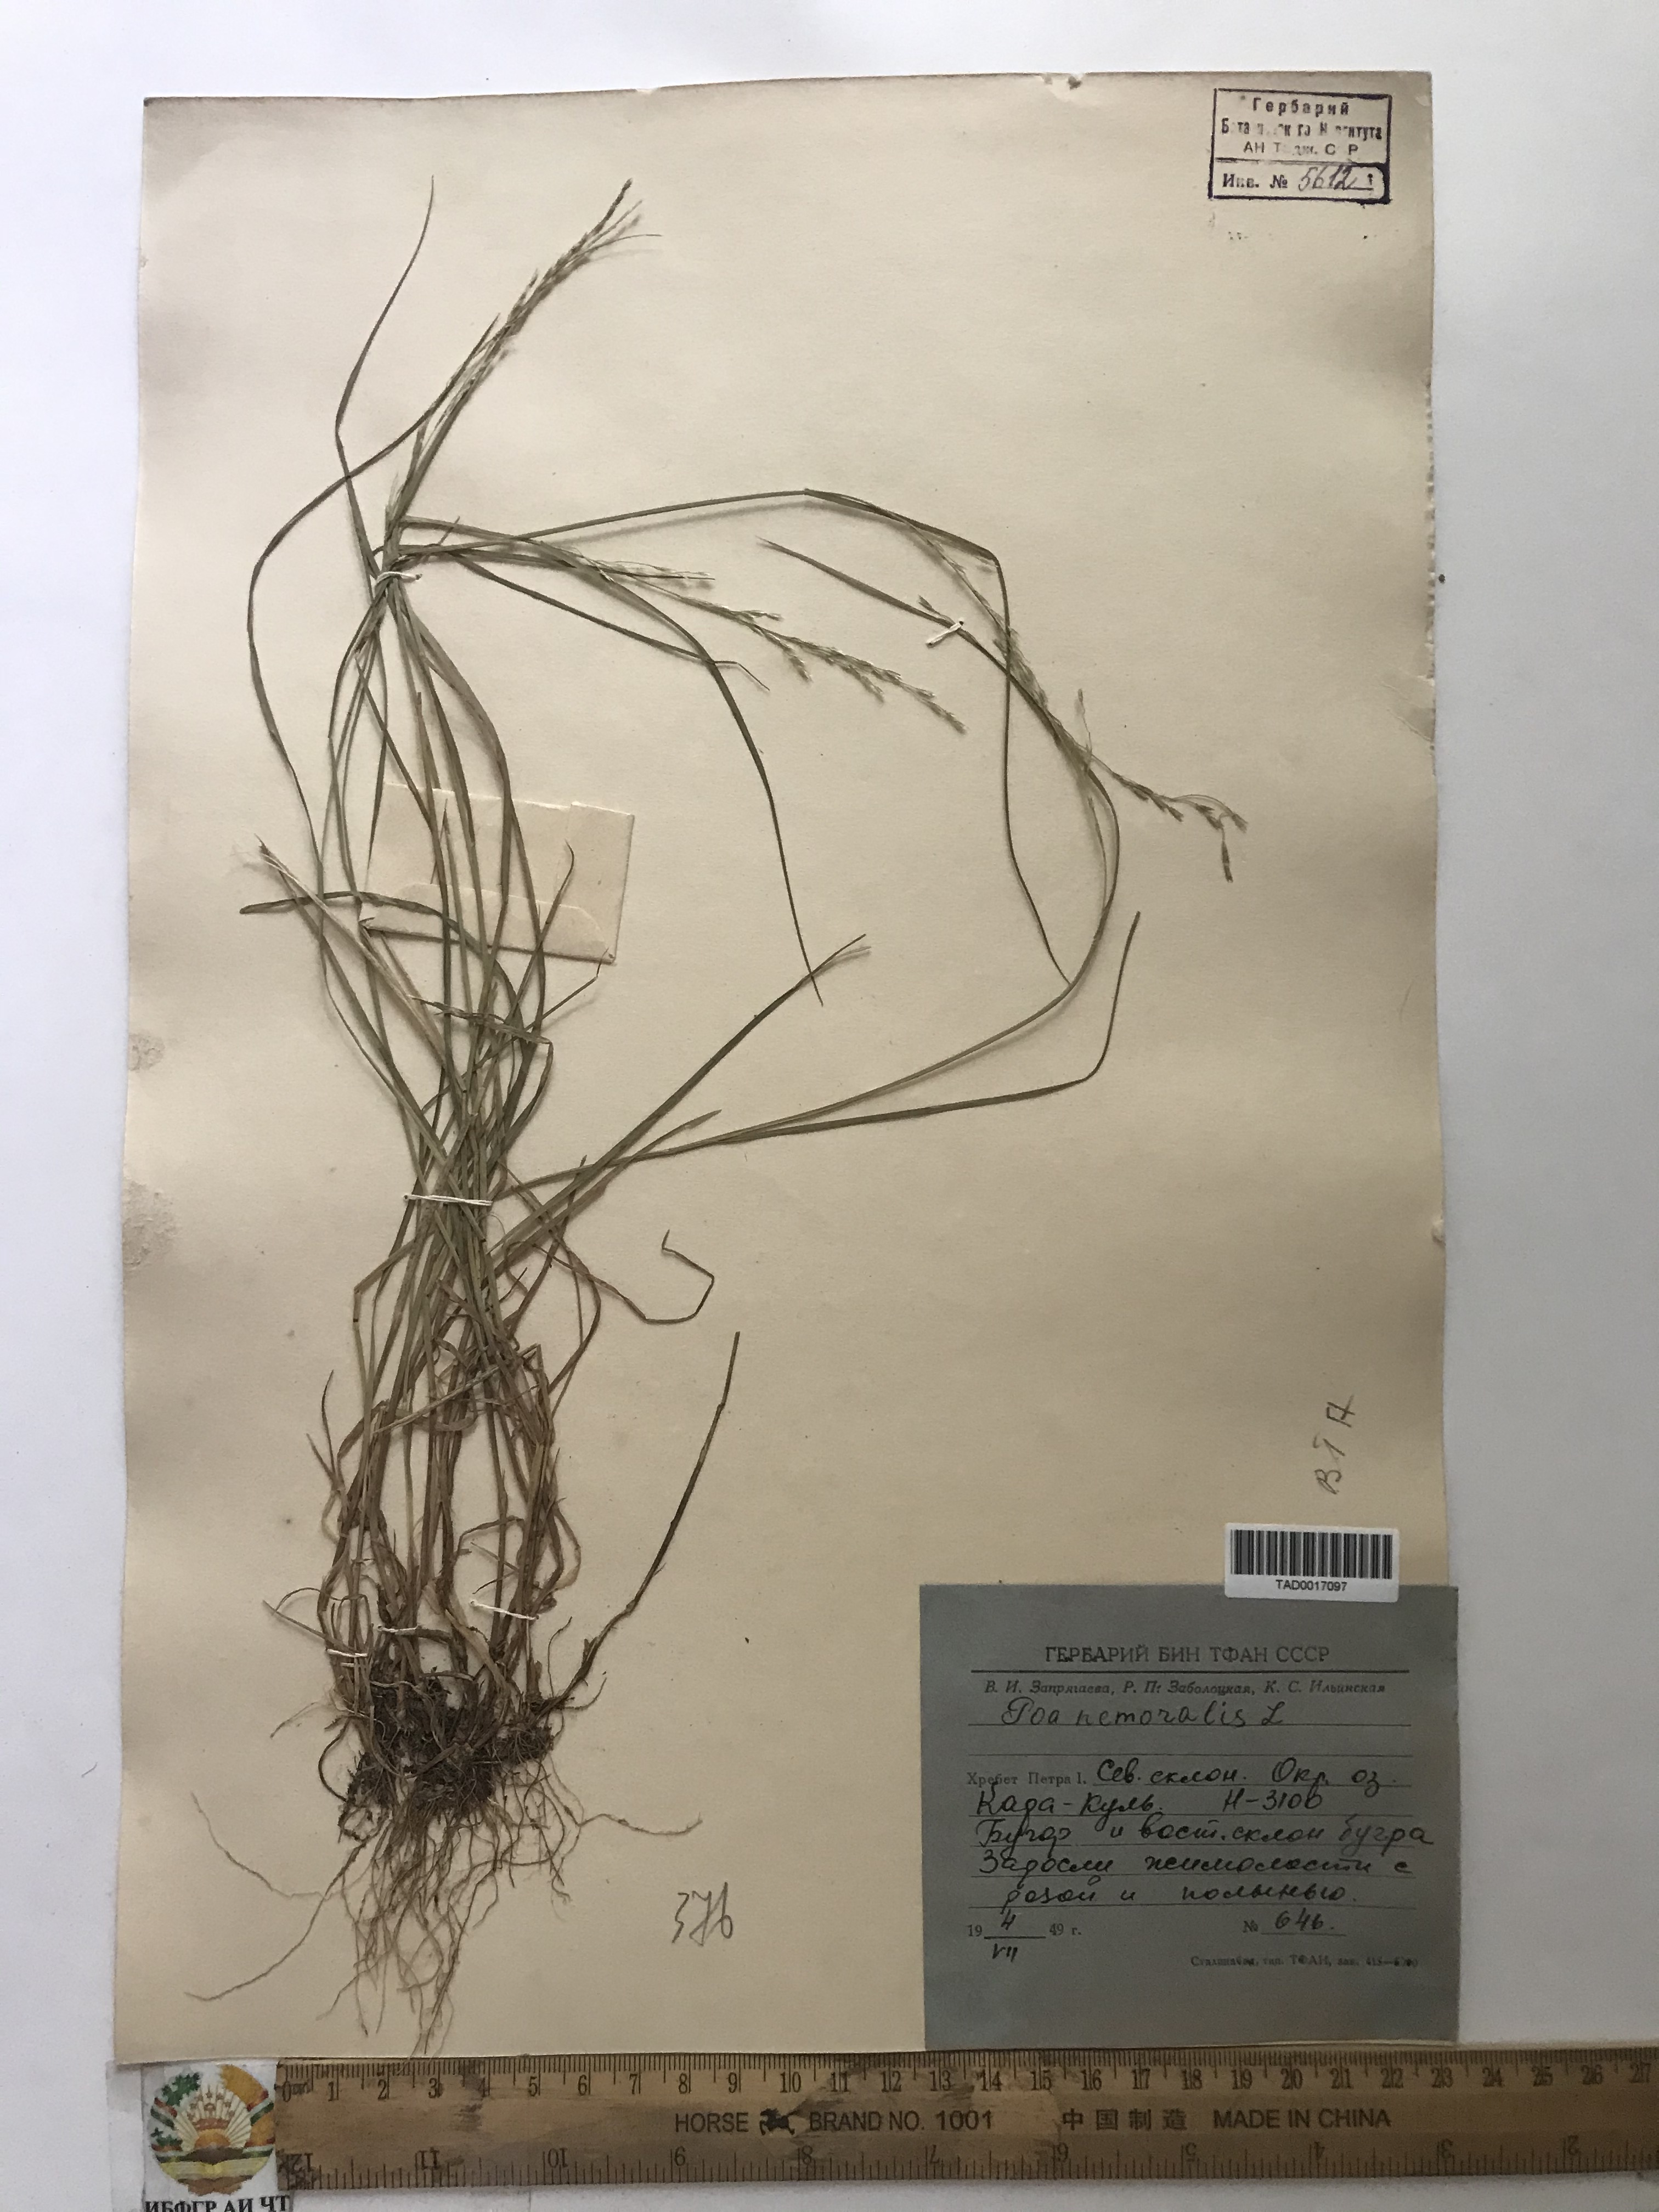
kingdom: Plantae
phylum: Tracheophyta
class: Liliopsida
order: Poales
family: Poaceae
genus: Poa
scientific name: Poa nemoralis
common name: Wood bluegrass
